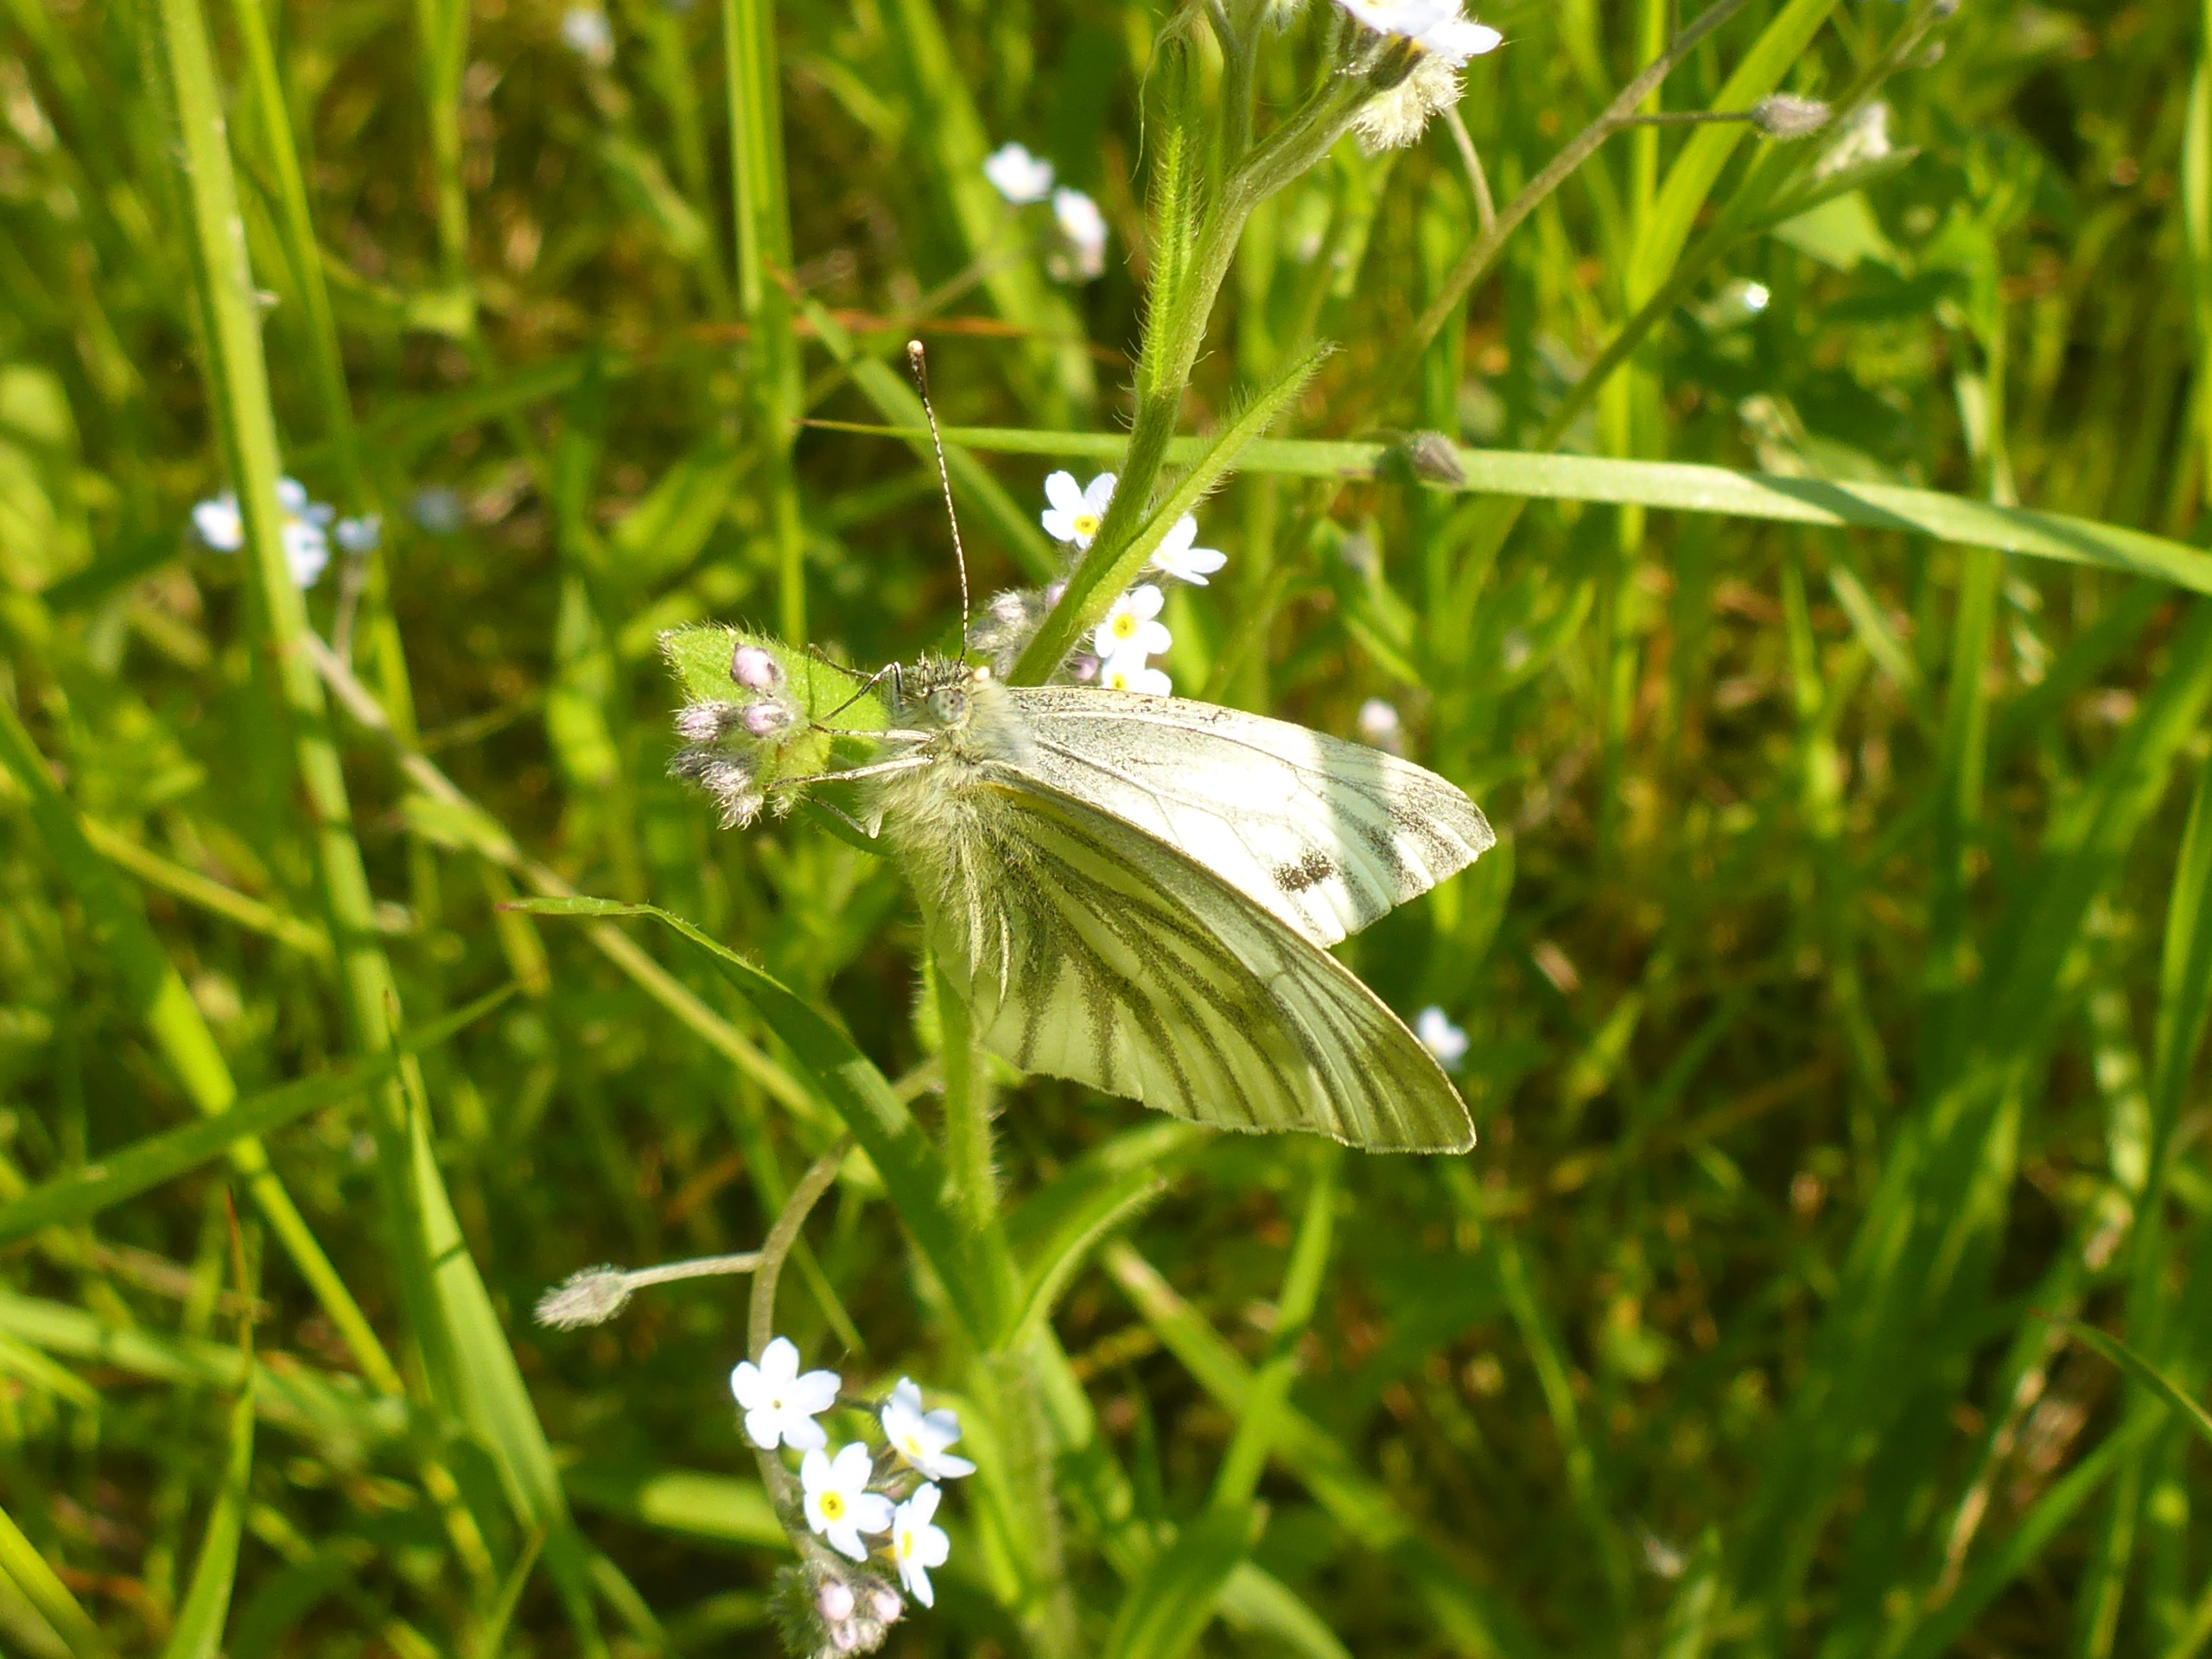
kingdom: Animalia
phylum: Arthropoda
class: Insecta
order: Lepidoptera
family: Pieridae
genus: Pieris
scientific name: Pieris napi
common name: Grønåret kålsommerfugl
